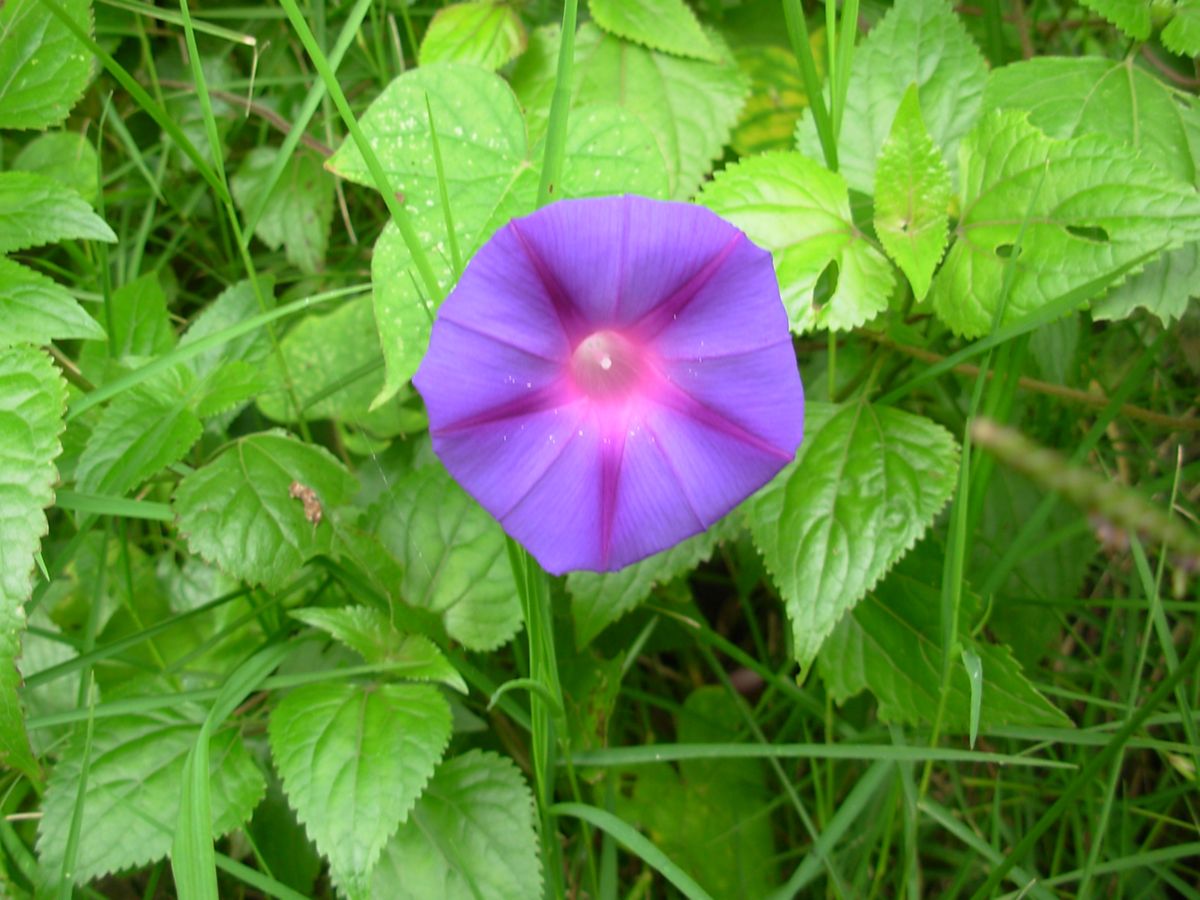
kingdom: Plantae
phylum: Tracheophyta
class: Magnoliopsida
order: Solanales
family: Convolvulaceae
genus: Ipomoea
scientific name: Ipomoea nil
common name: Japanese morning-glory
